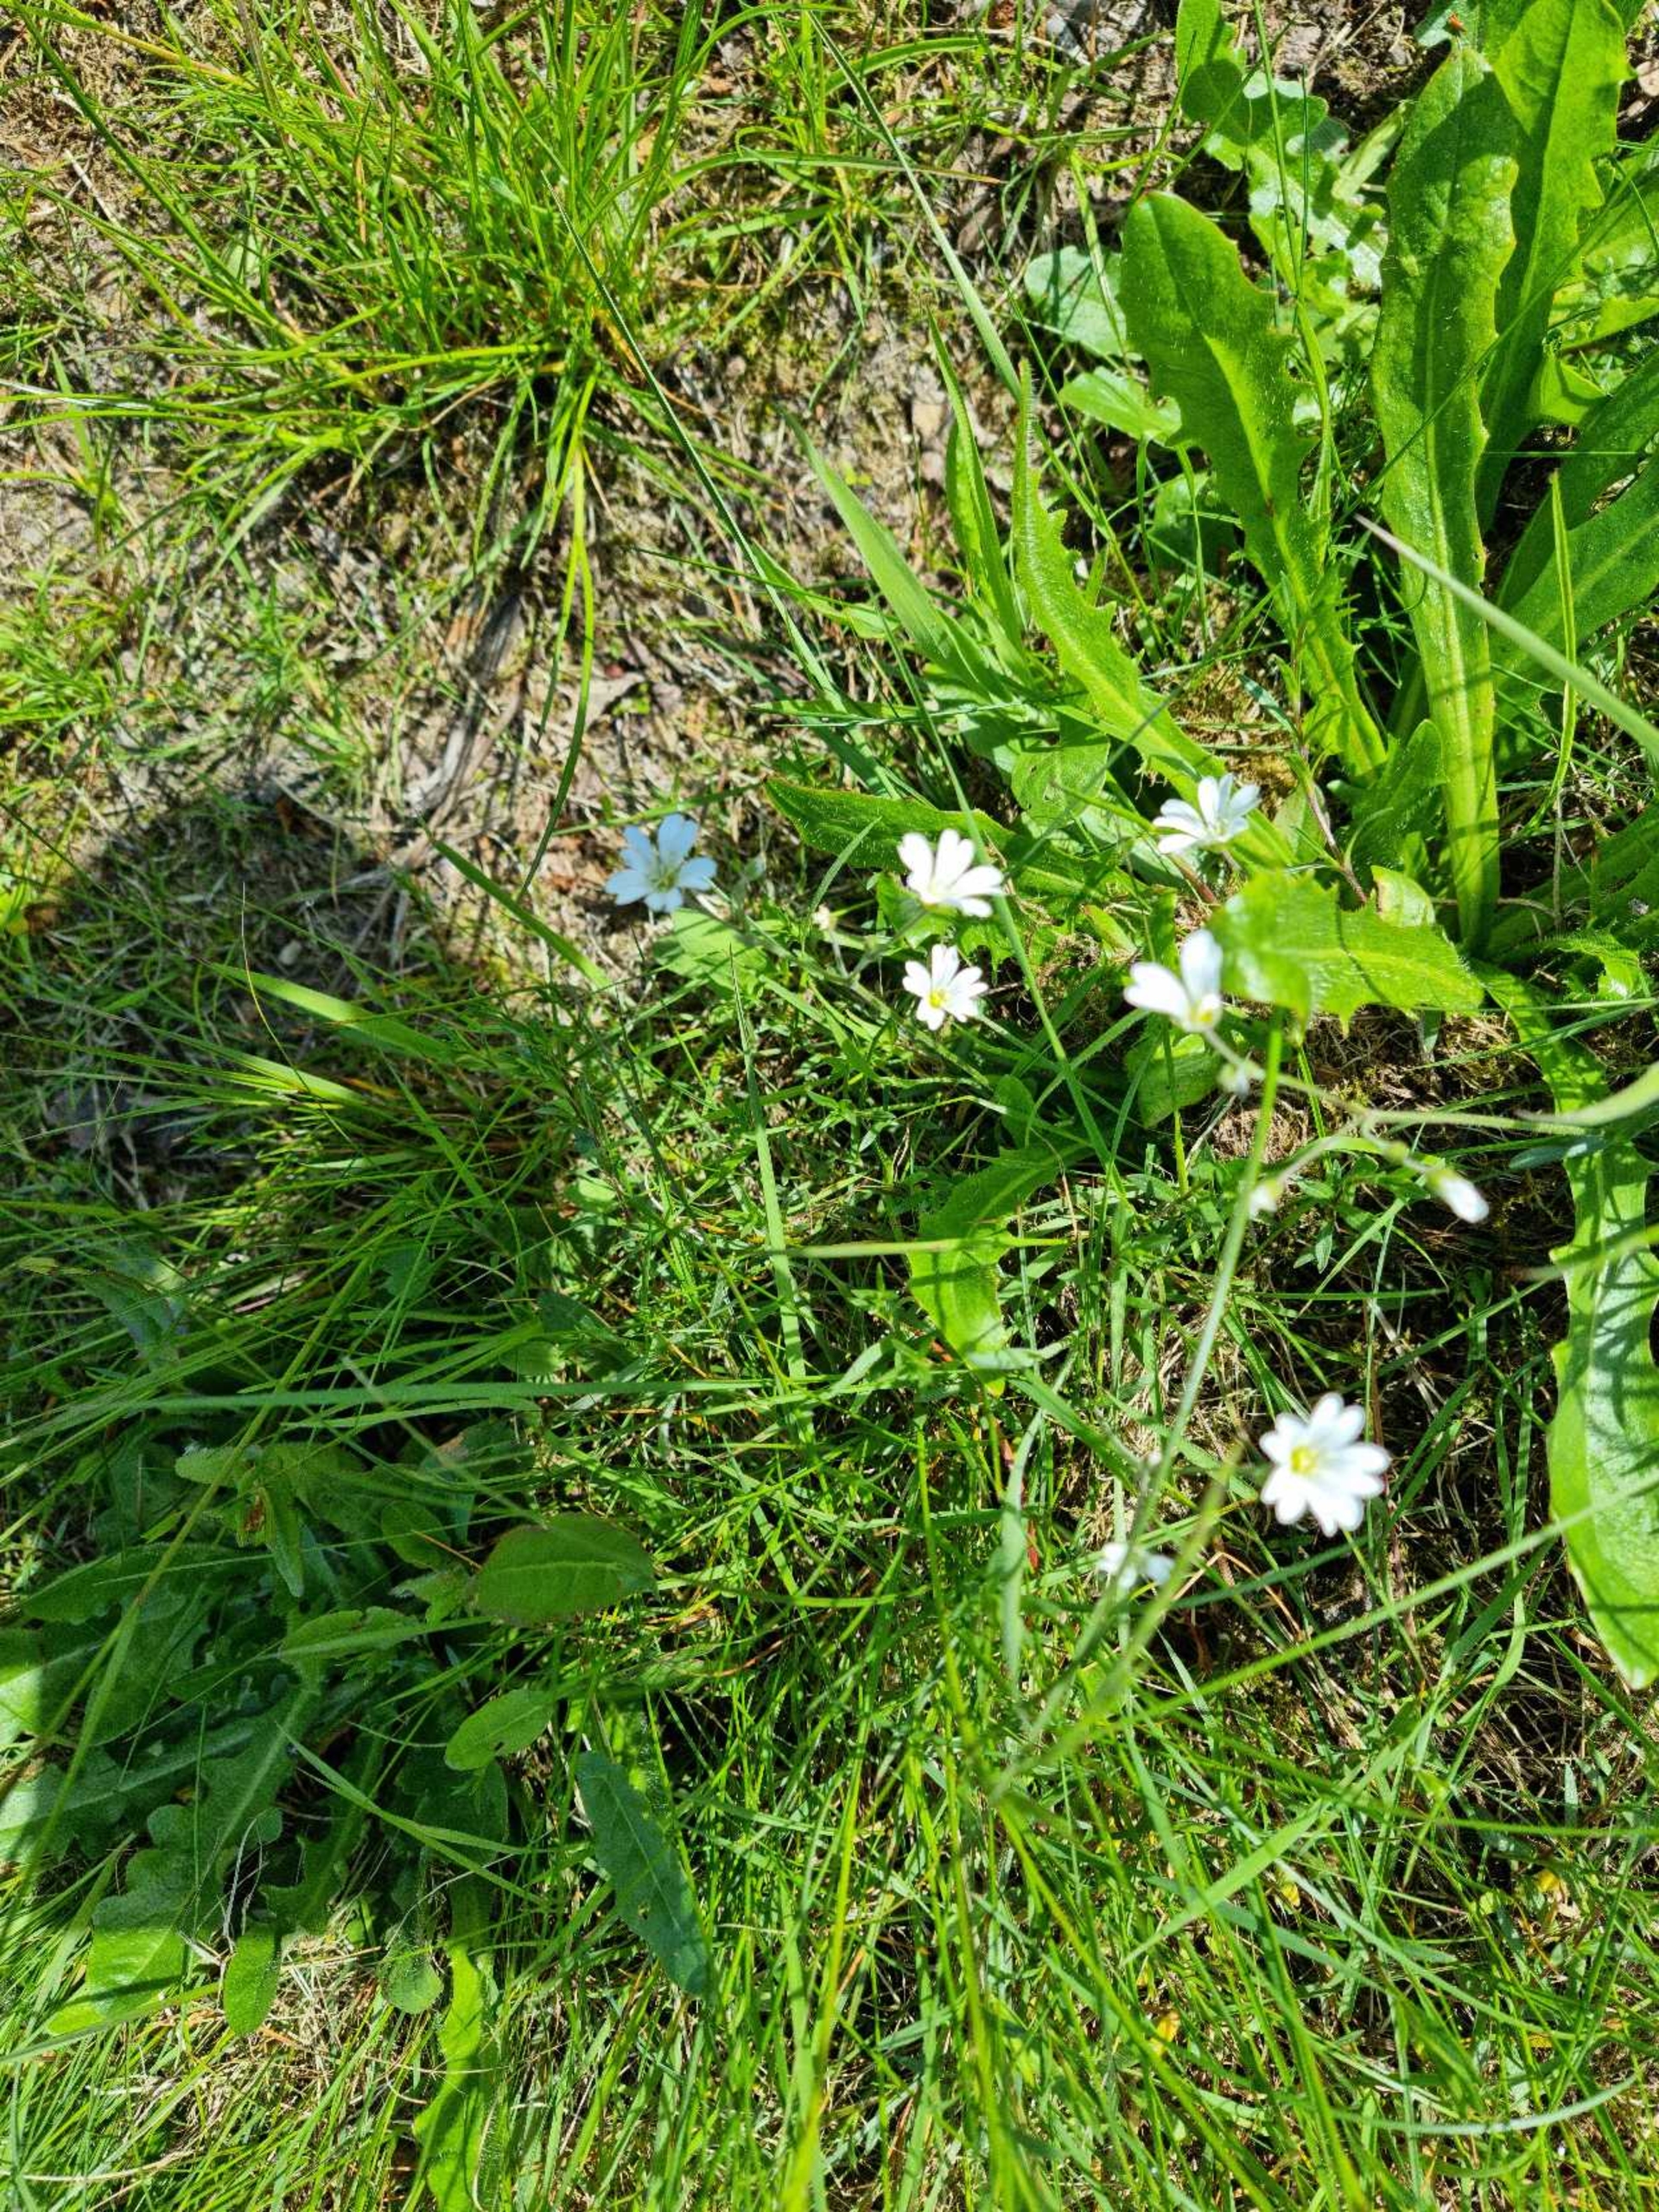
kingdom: Plantae
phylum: Tracheophyta
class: Magnoliopsida
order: Caryophyllales
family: Caryophyllaceae
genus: Cerastium
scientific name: Cerastium arvense
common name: Storblomstret hønsetarm
